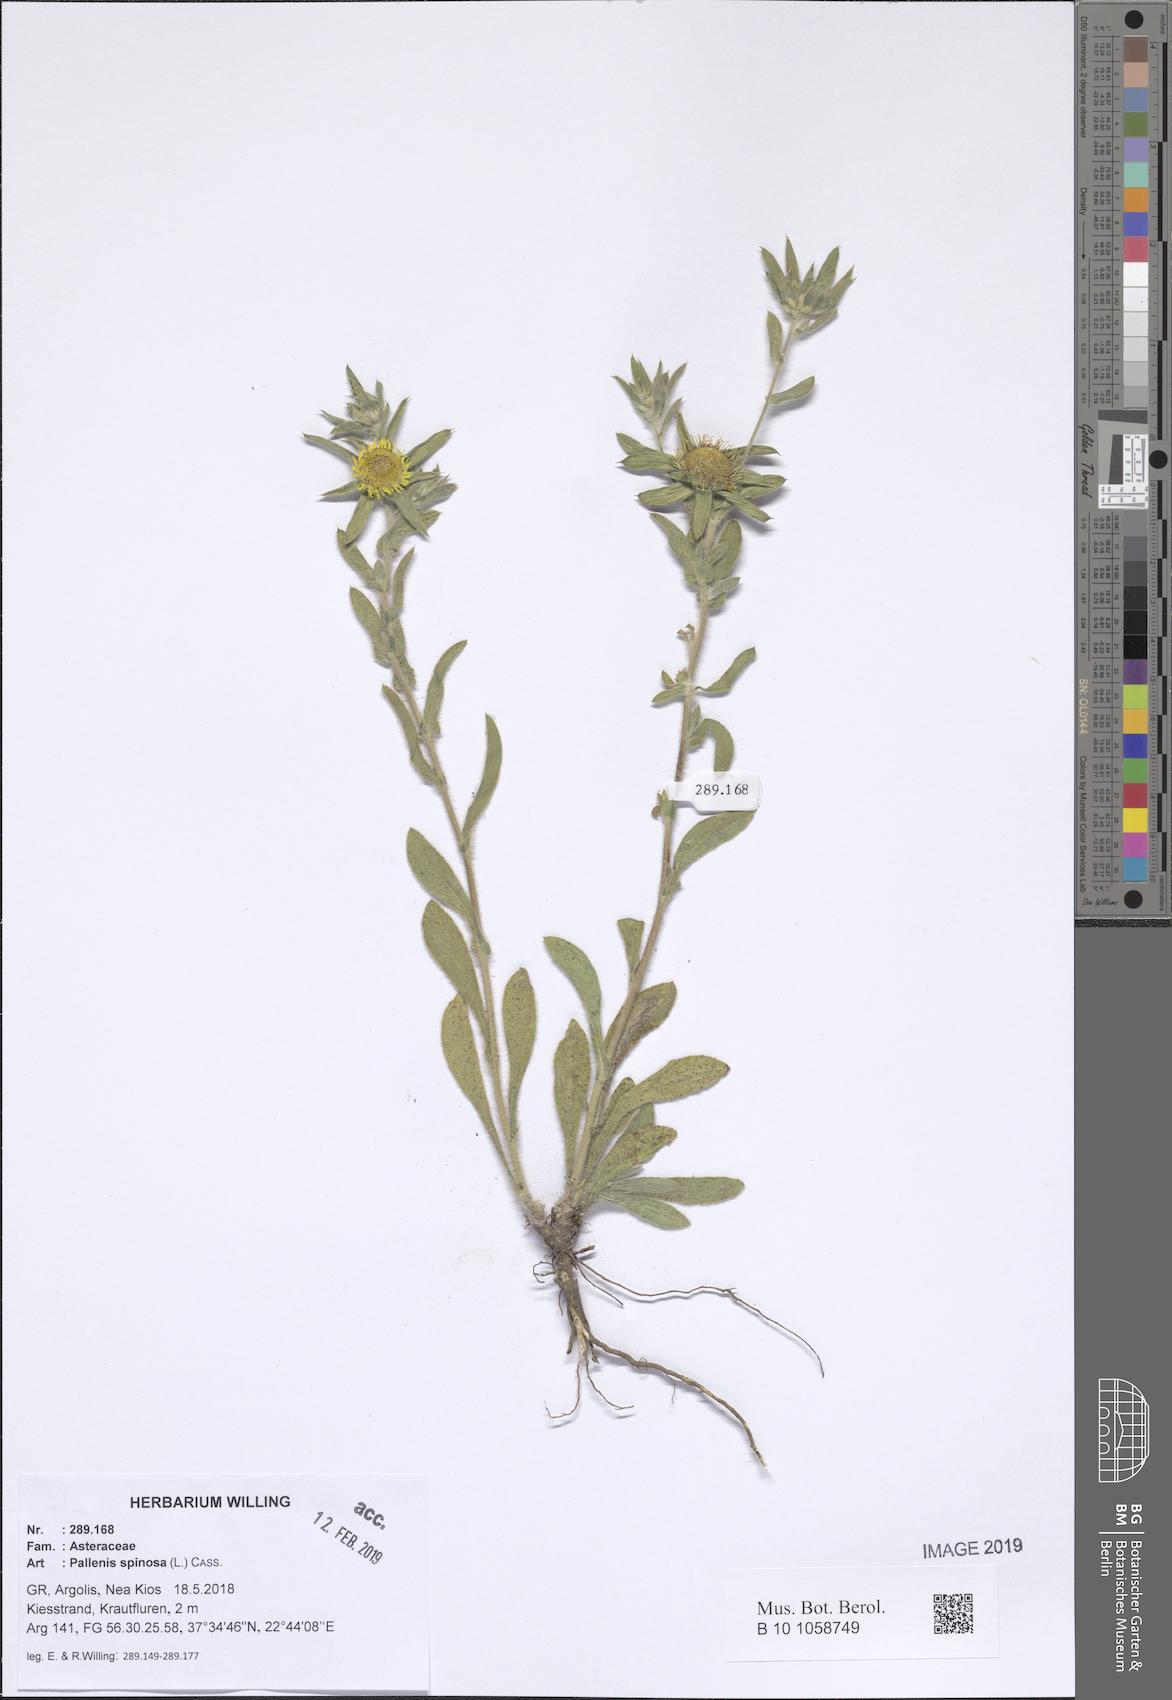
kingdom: Plantae
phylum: Tracheophyta
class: Magnoliopsida
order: Asterales
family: Asteraceae
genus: Pallenis
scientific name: Pallenis spinosa
